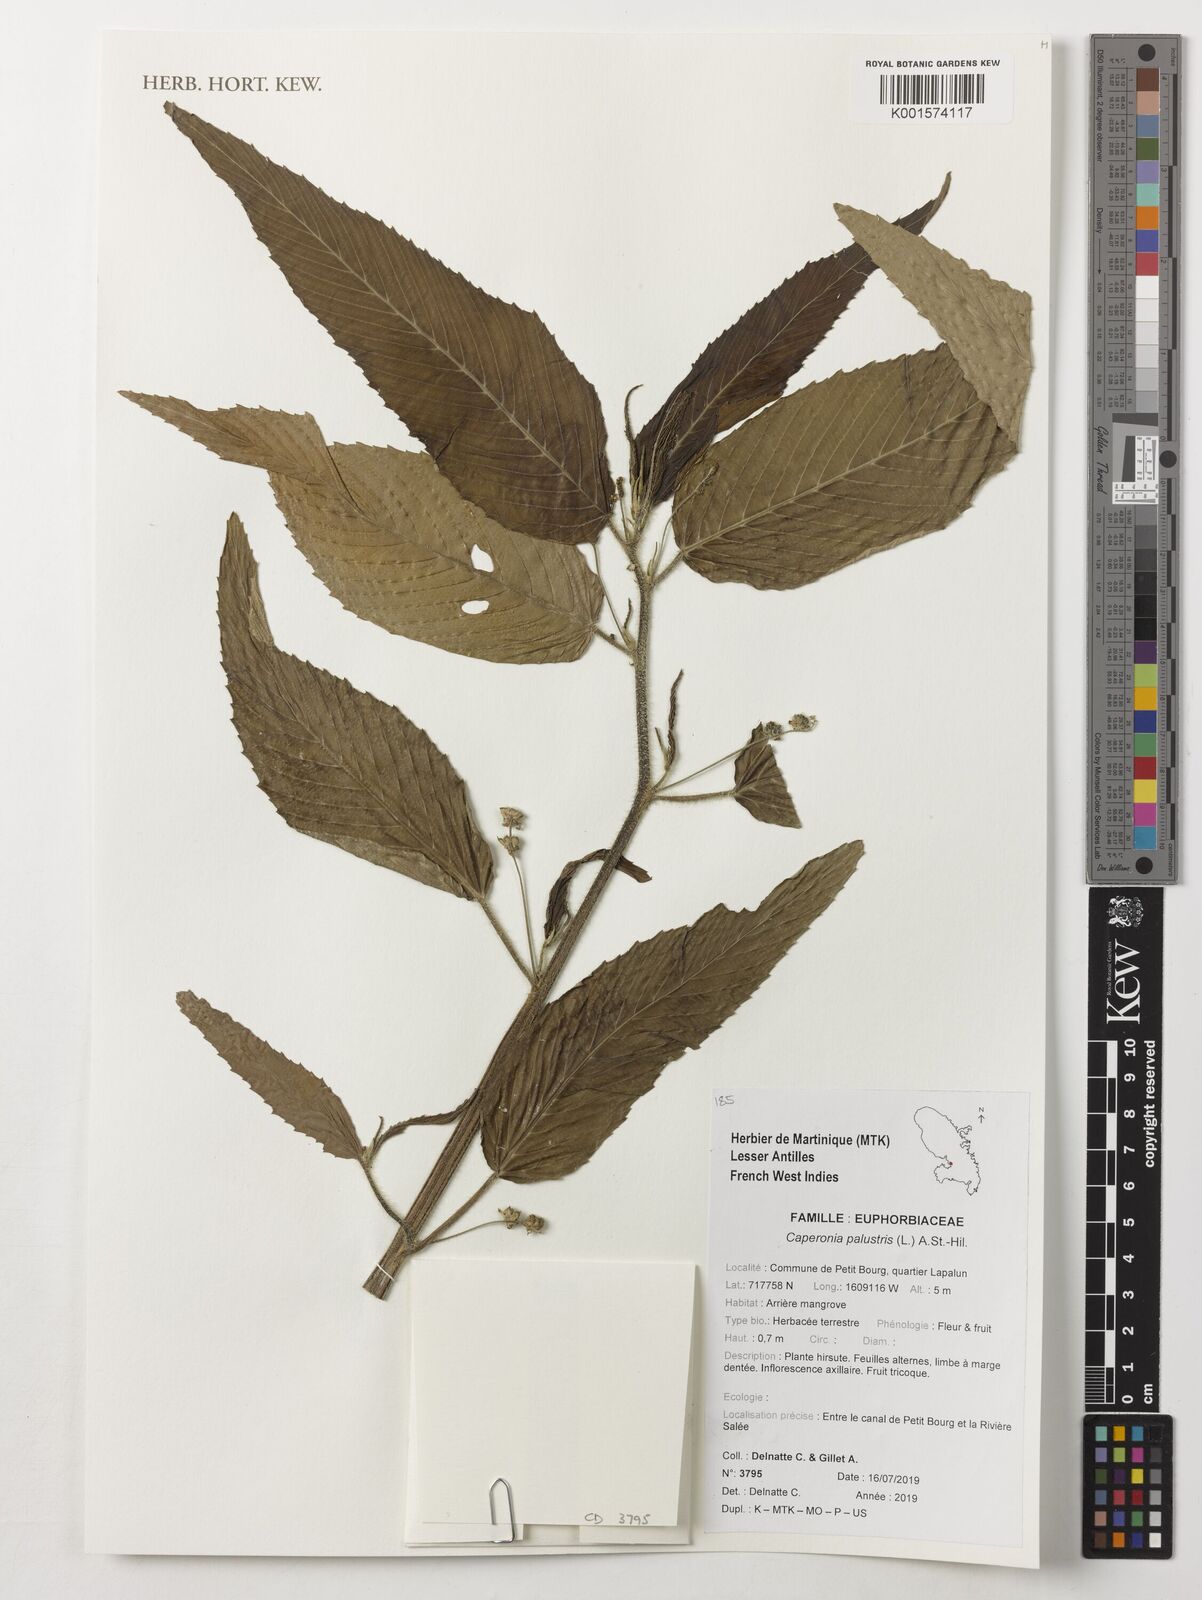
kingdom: Plantae
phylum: Tracheophyta
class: Magnoliopsida
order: Malpighiales
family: Euphorbiaceae
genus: Caperonia
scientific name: Caperonia palustris
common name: Sacatrapo
